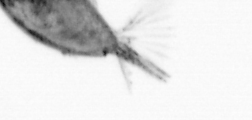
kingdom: Animalia
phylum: Arthropoda
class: Maxillopoda
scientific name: Maxillopoda
